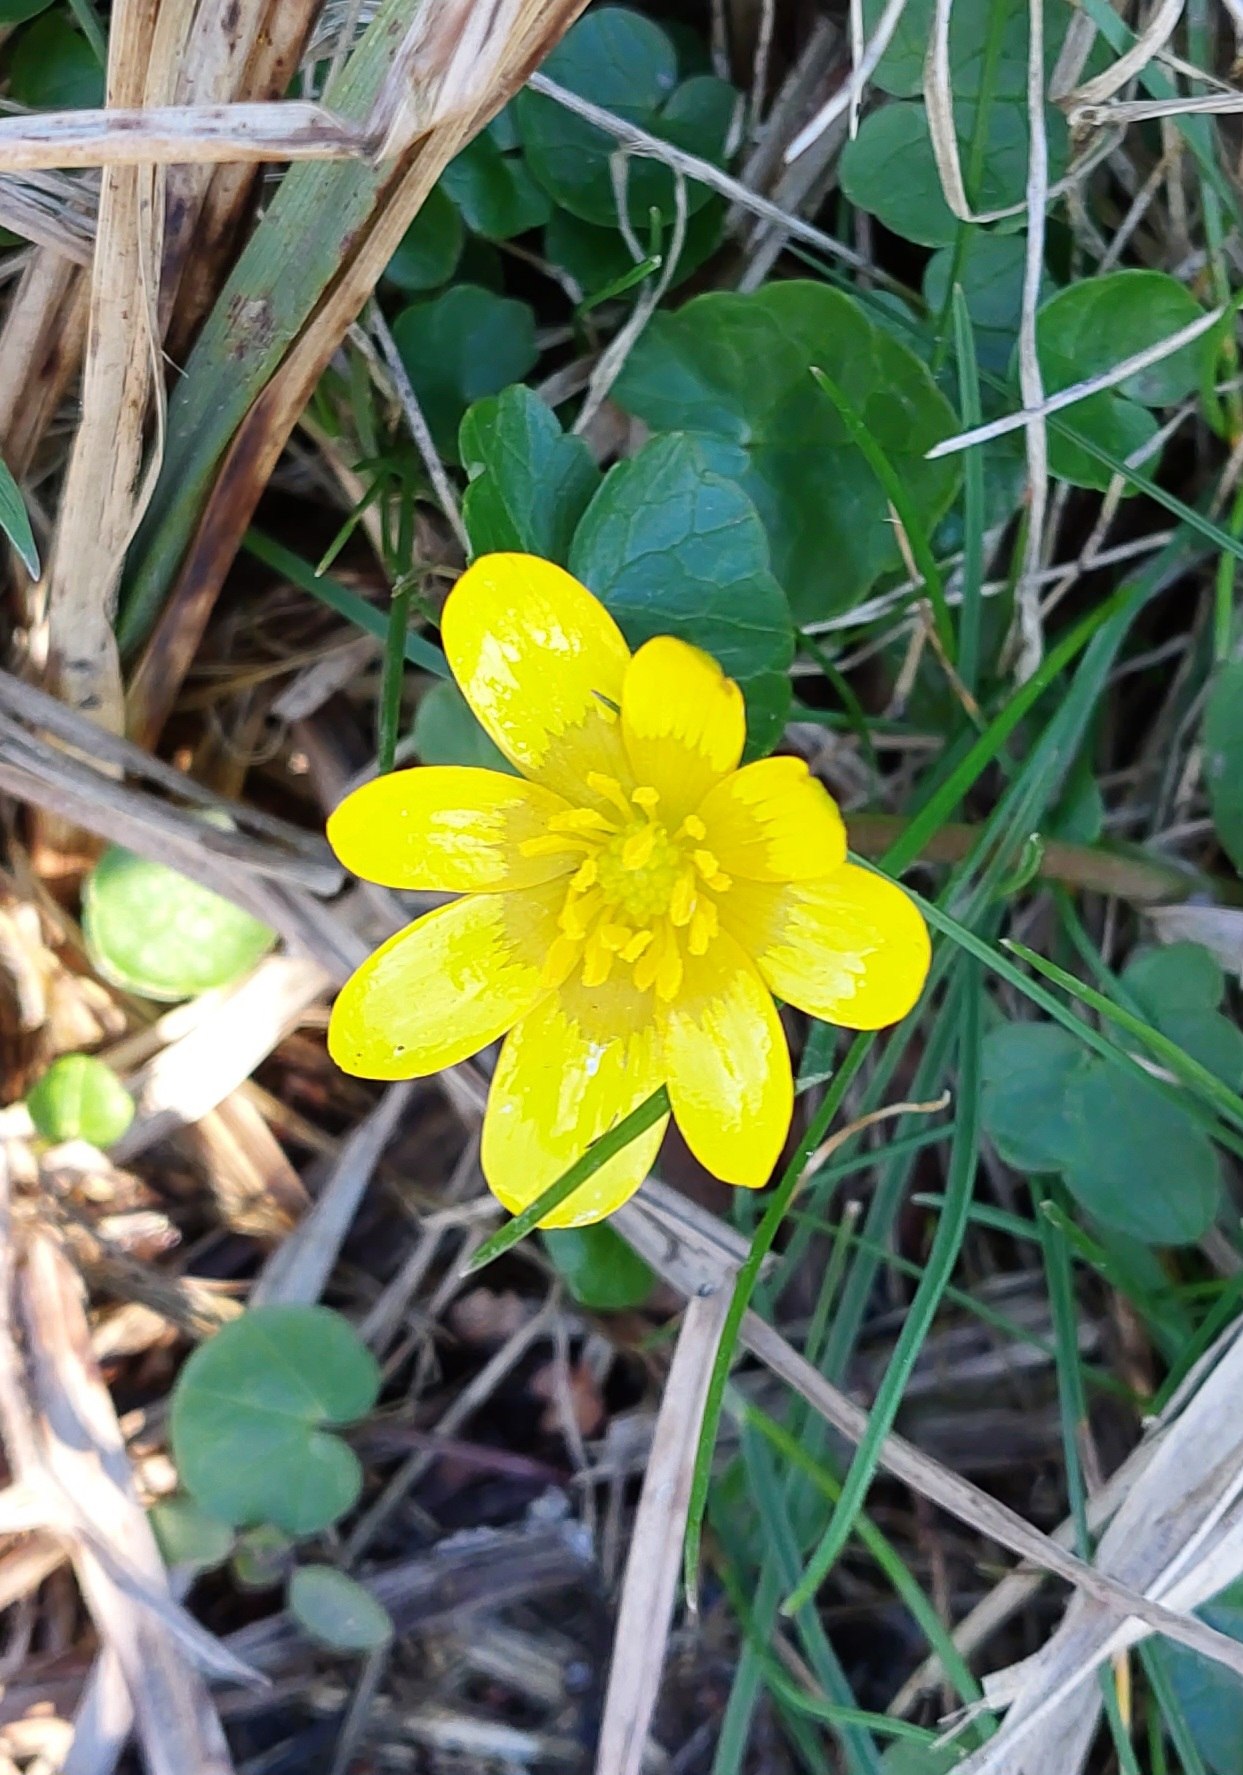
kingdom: Plantae
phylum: Tracheophyta
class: Magnoliopsida
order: Ranunculales
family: Ranunculaceae
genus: Ficaria
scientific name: Ficaria verna
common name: Vorterod
